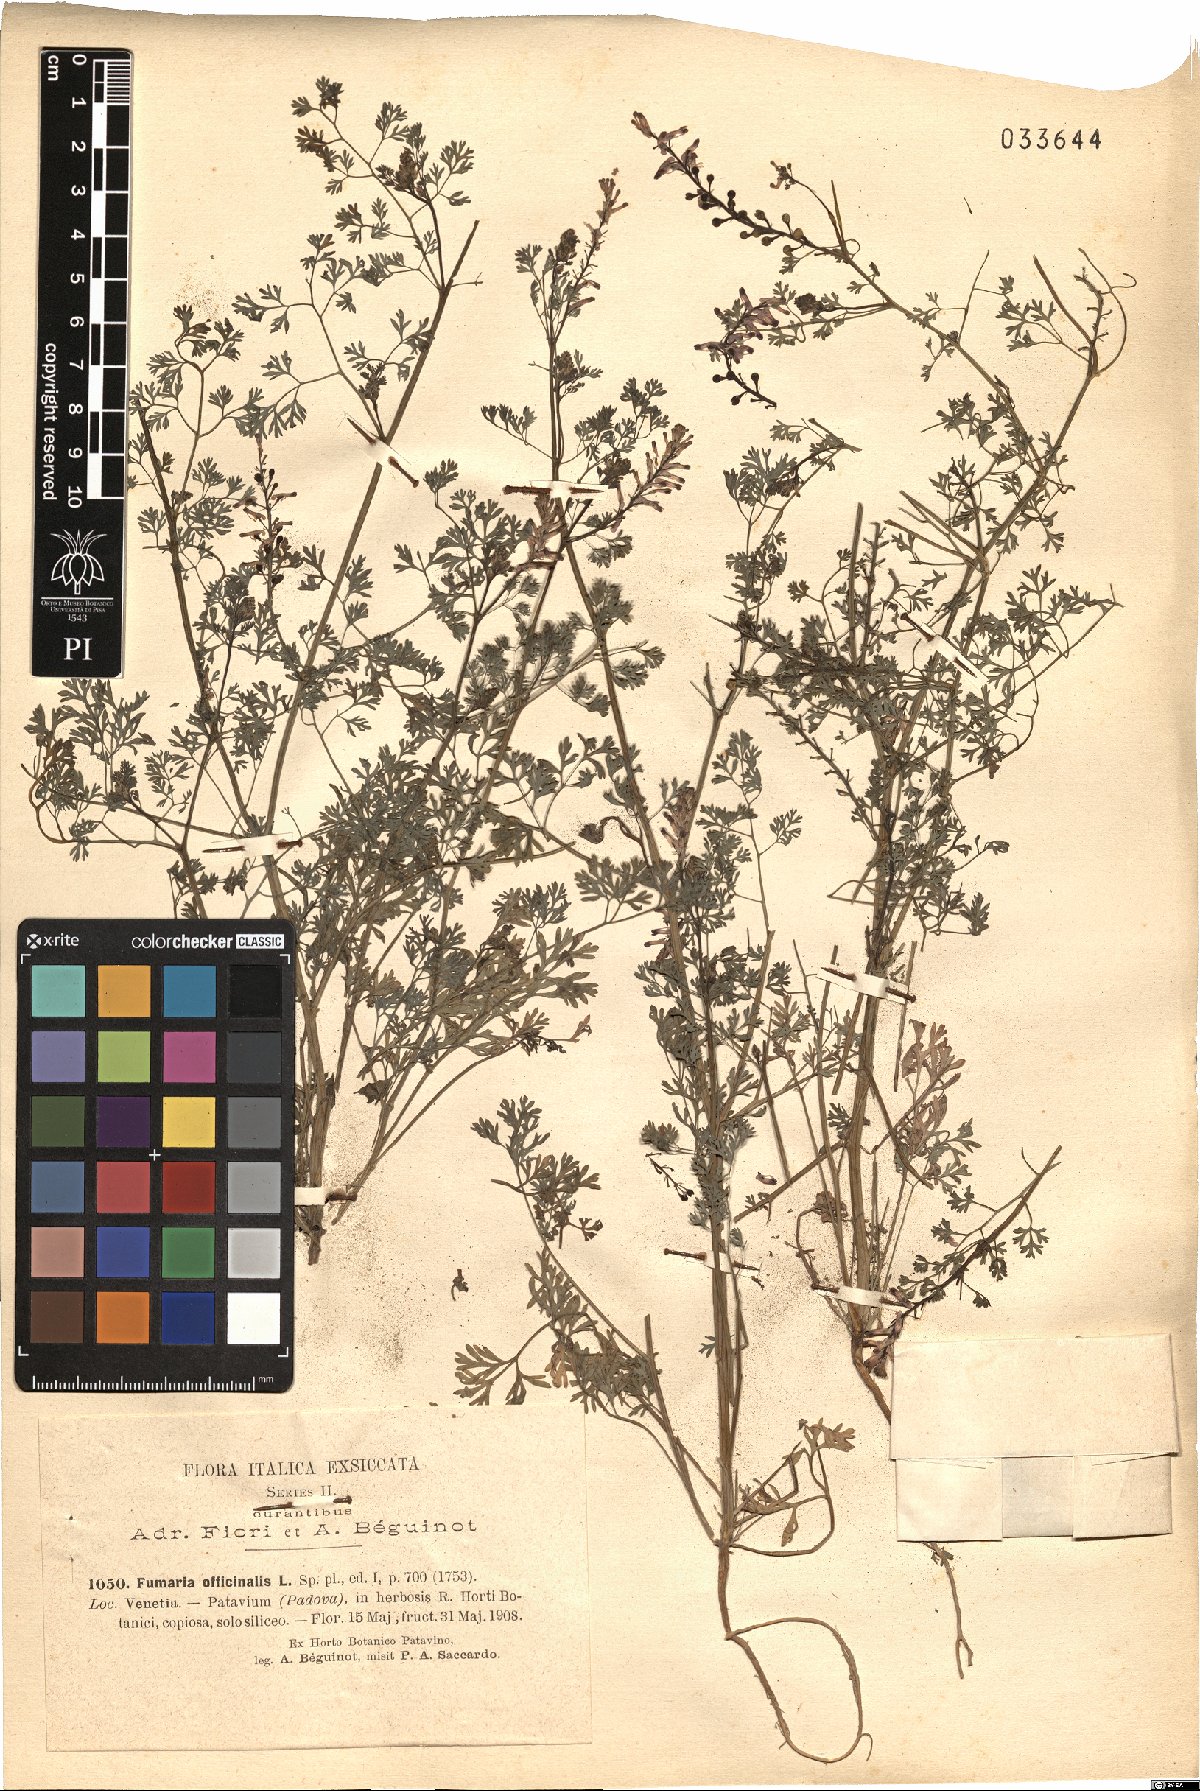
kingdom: Plantae
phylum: Tracheophyta
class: Magnoliopsida
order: Ranunculales
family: Papaveraceae
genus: Fumaria
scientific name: Fumaria officinalis
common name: Common fumitory
